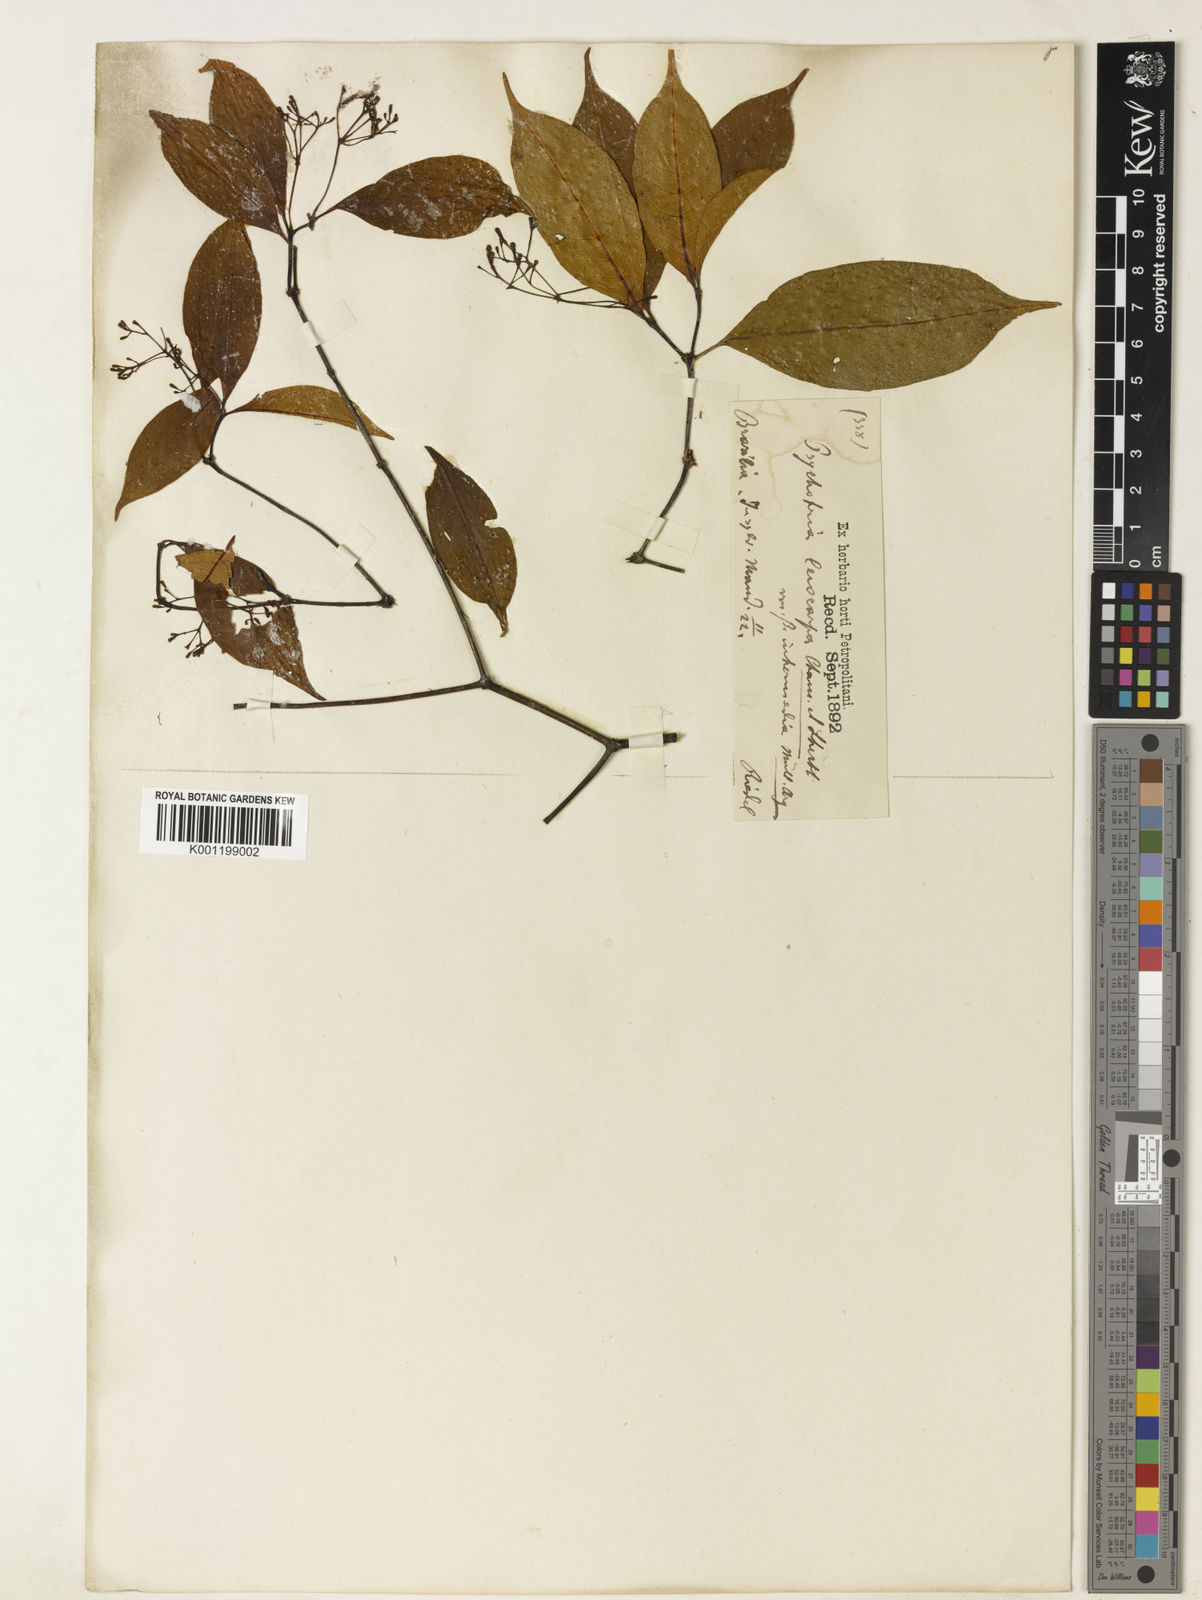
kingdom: Plantae
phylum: Tracheophyta
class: Magnoliopsida
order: Gentianales
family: Rubiaceae
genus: Psychotria
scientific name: Psychotria leiocarpa
